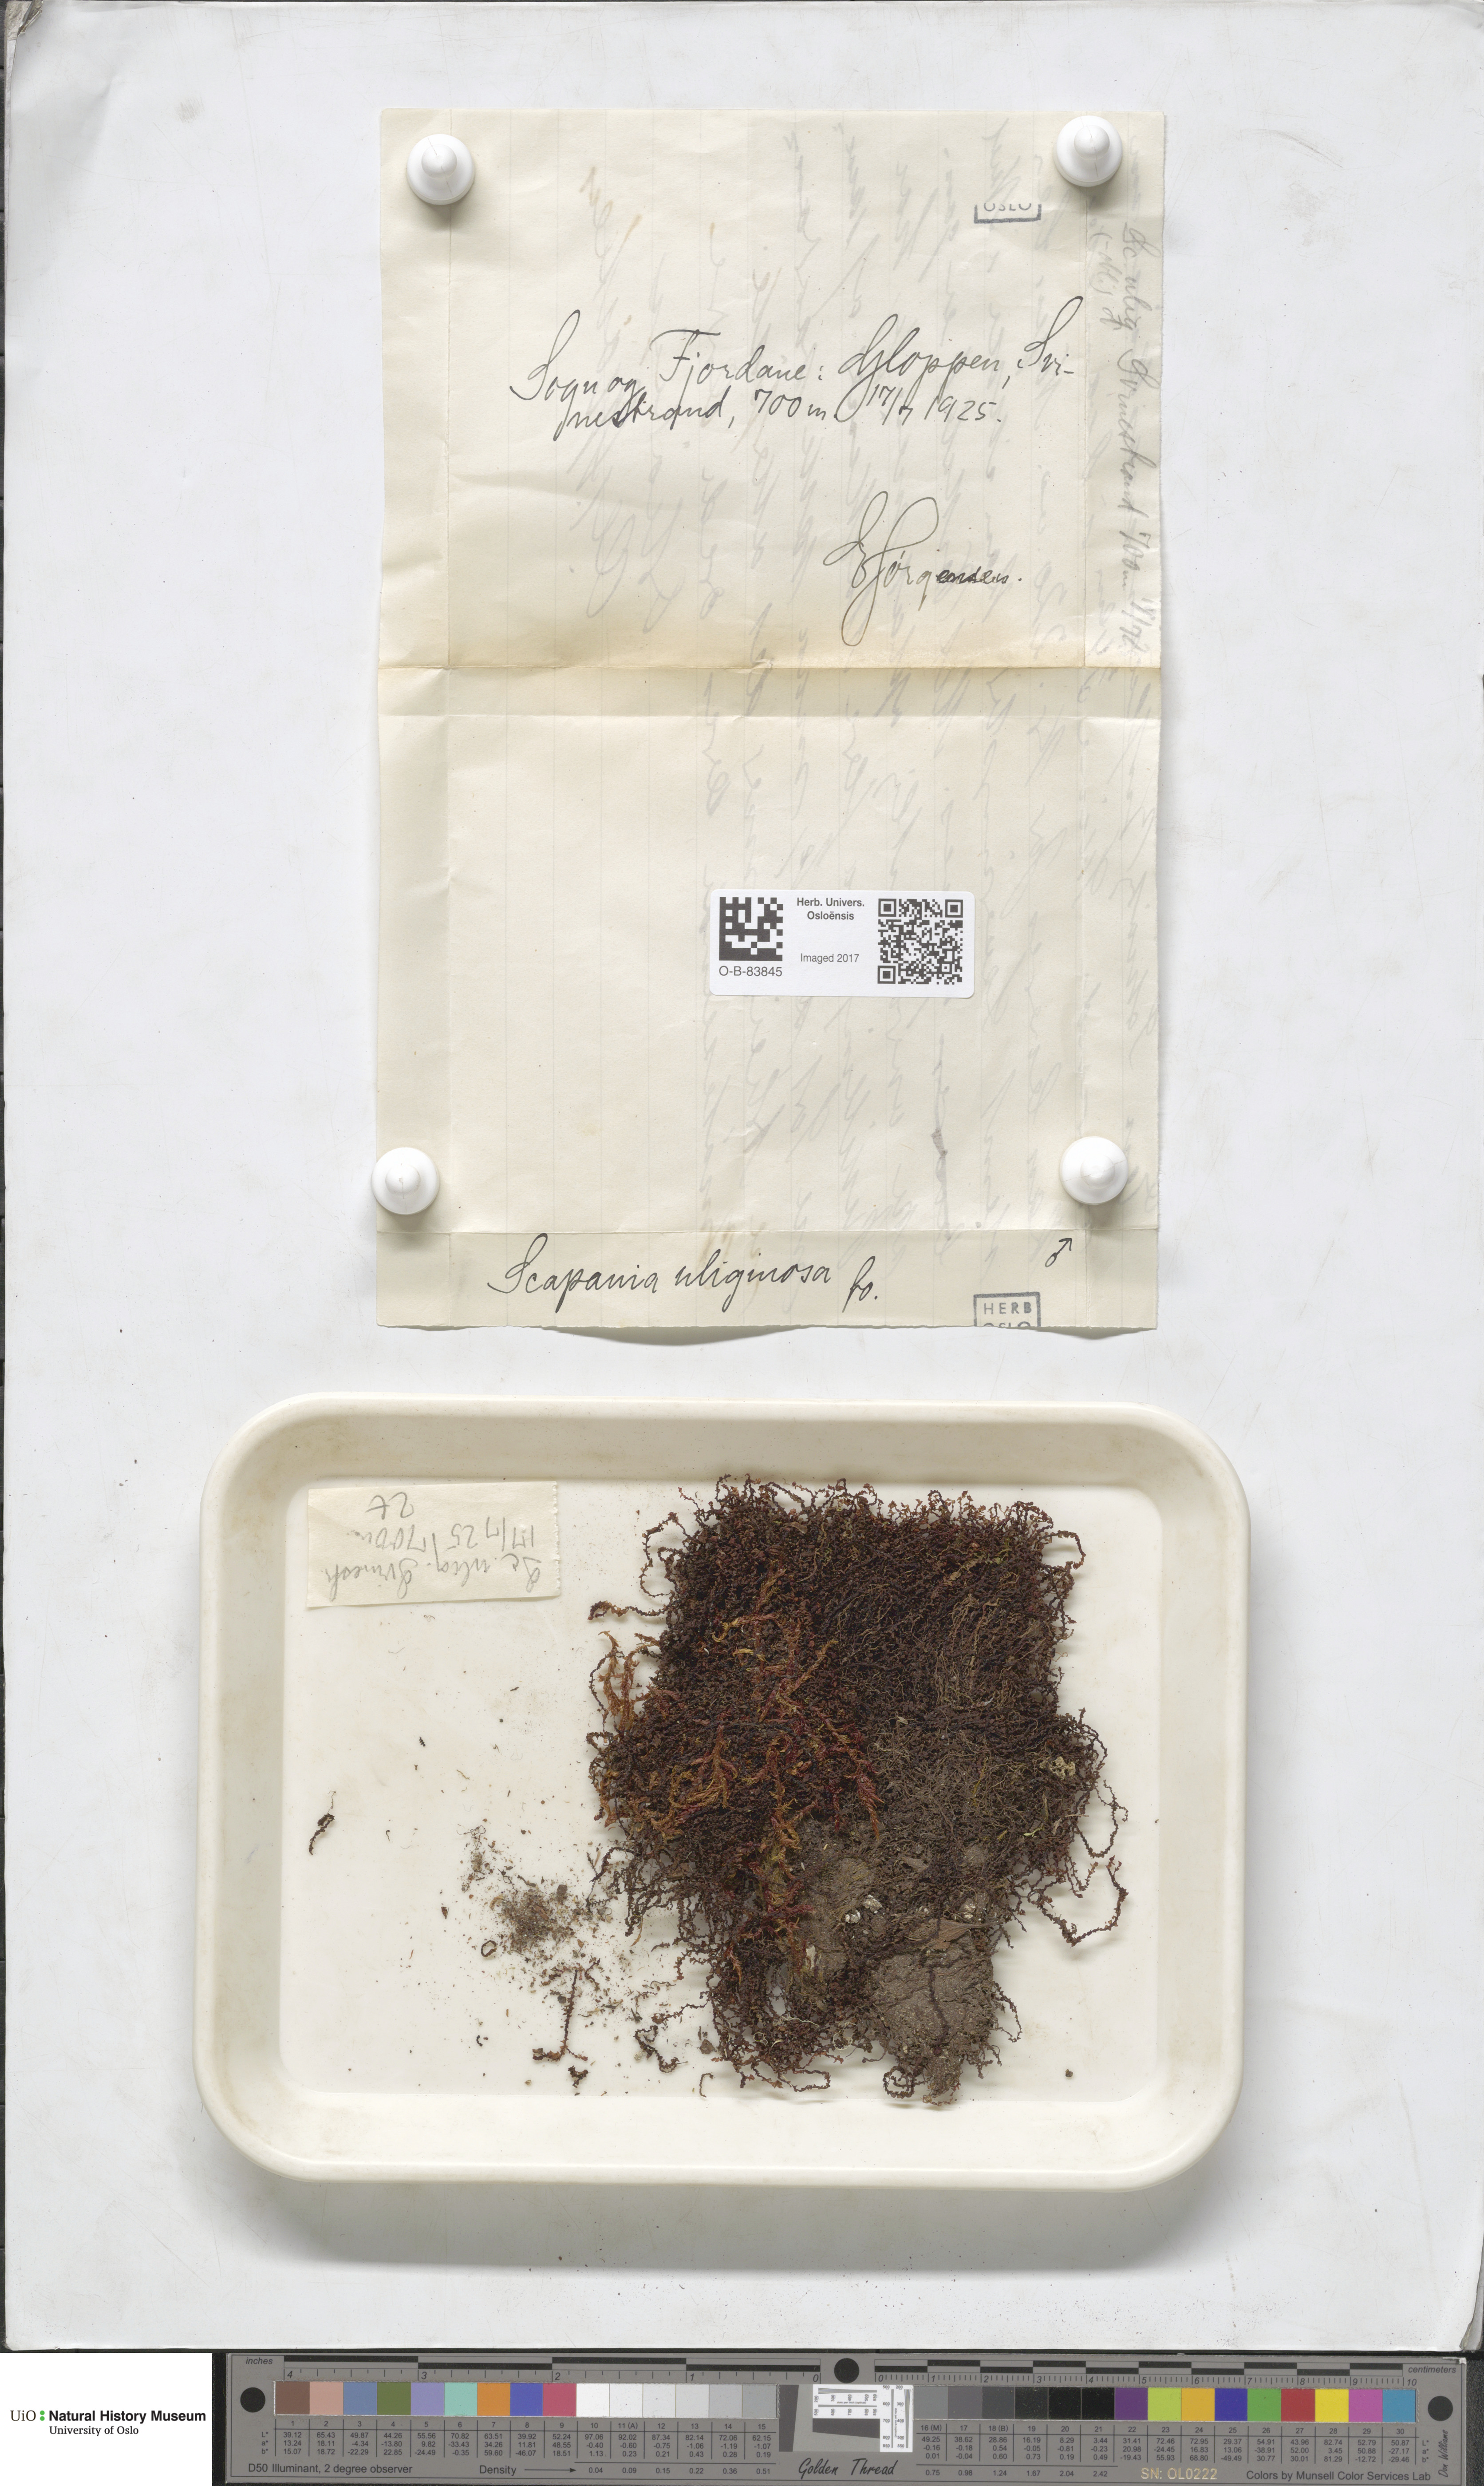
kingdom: Plantae
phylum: Marchantiophyta
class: Jungermanniopsida
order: Jungermanniales
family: Scapaniaceae
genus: Scapania
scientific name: Scapania uliginosa
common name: Marsh earwort
